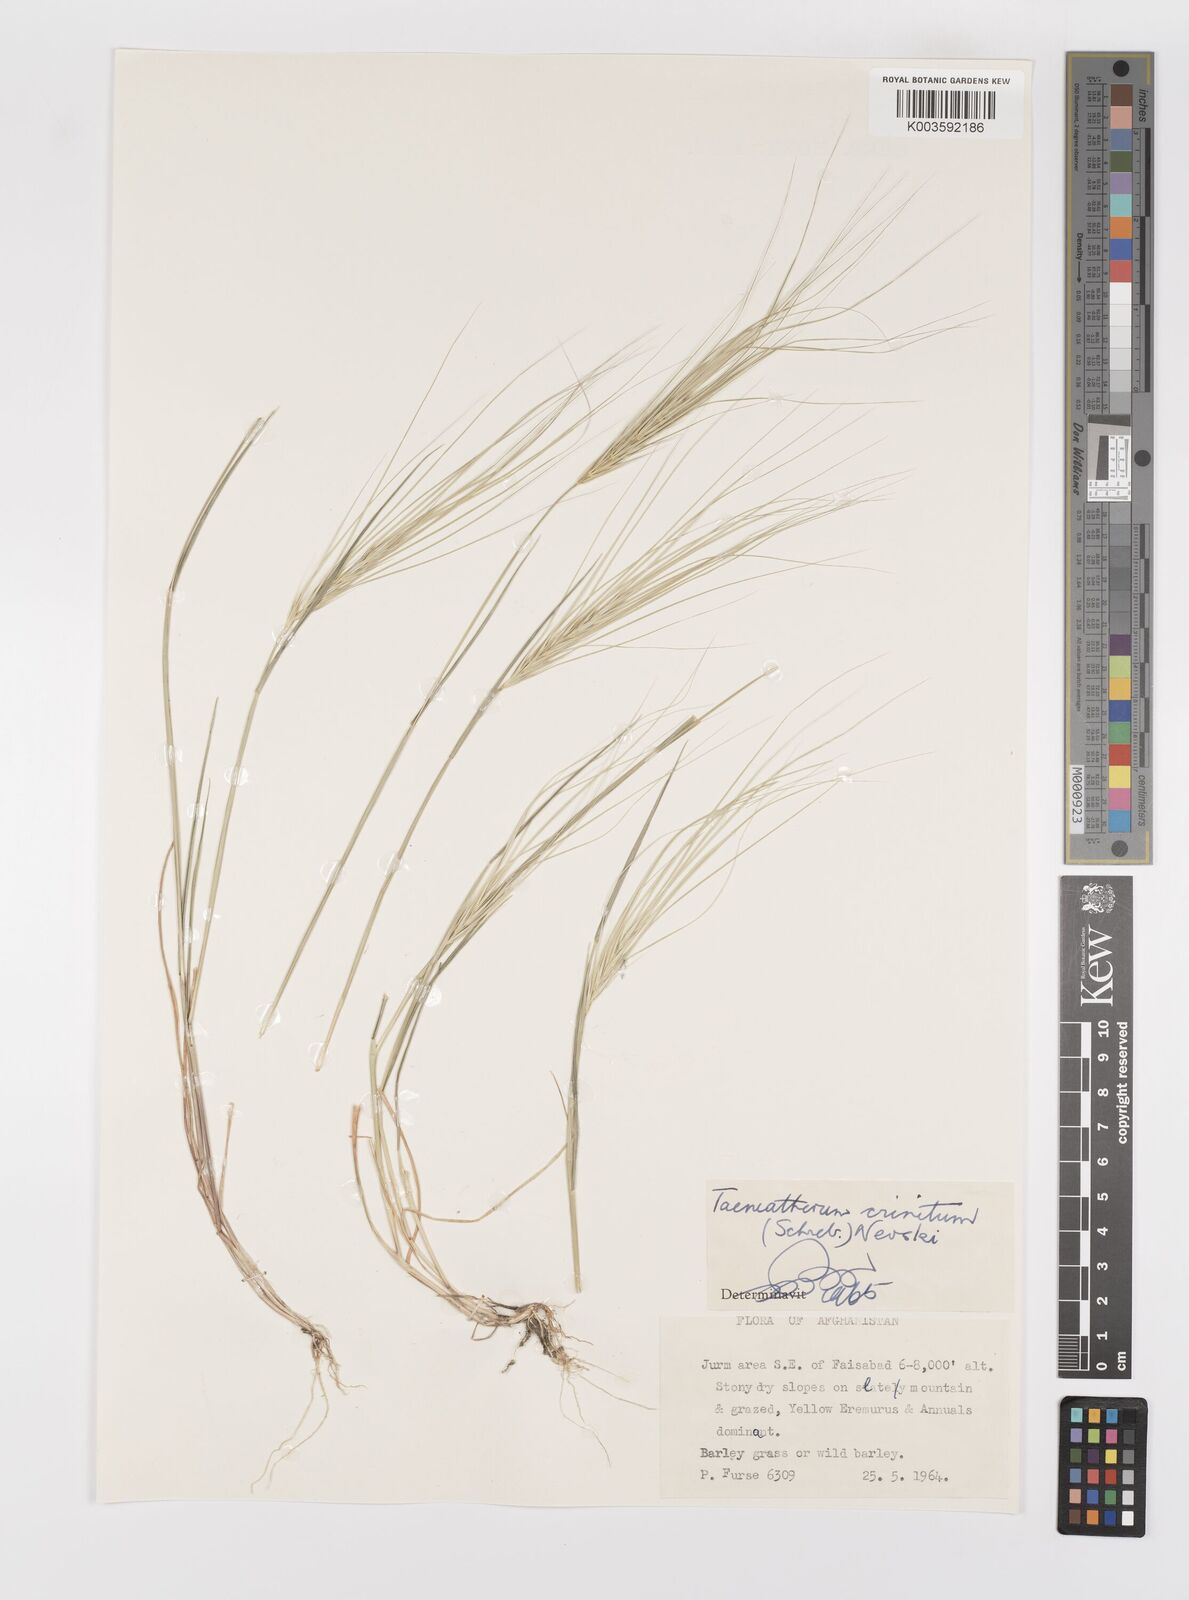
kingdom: Plantae
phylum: Tracheophyta
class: Liliopsida
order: Poales
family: Poaceae
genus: Taeniatherum
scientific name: Taeniatherum caput-medusae
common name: Medusahead
